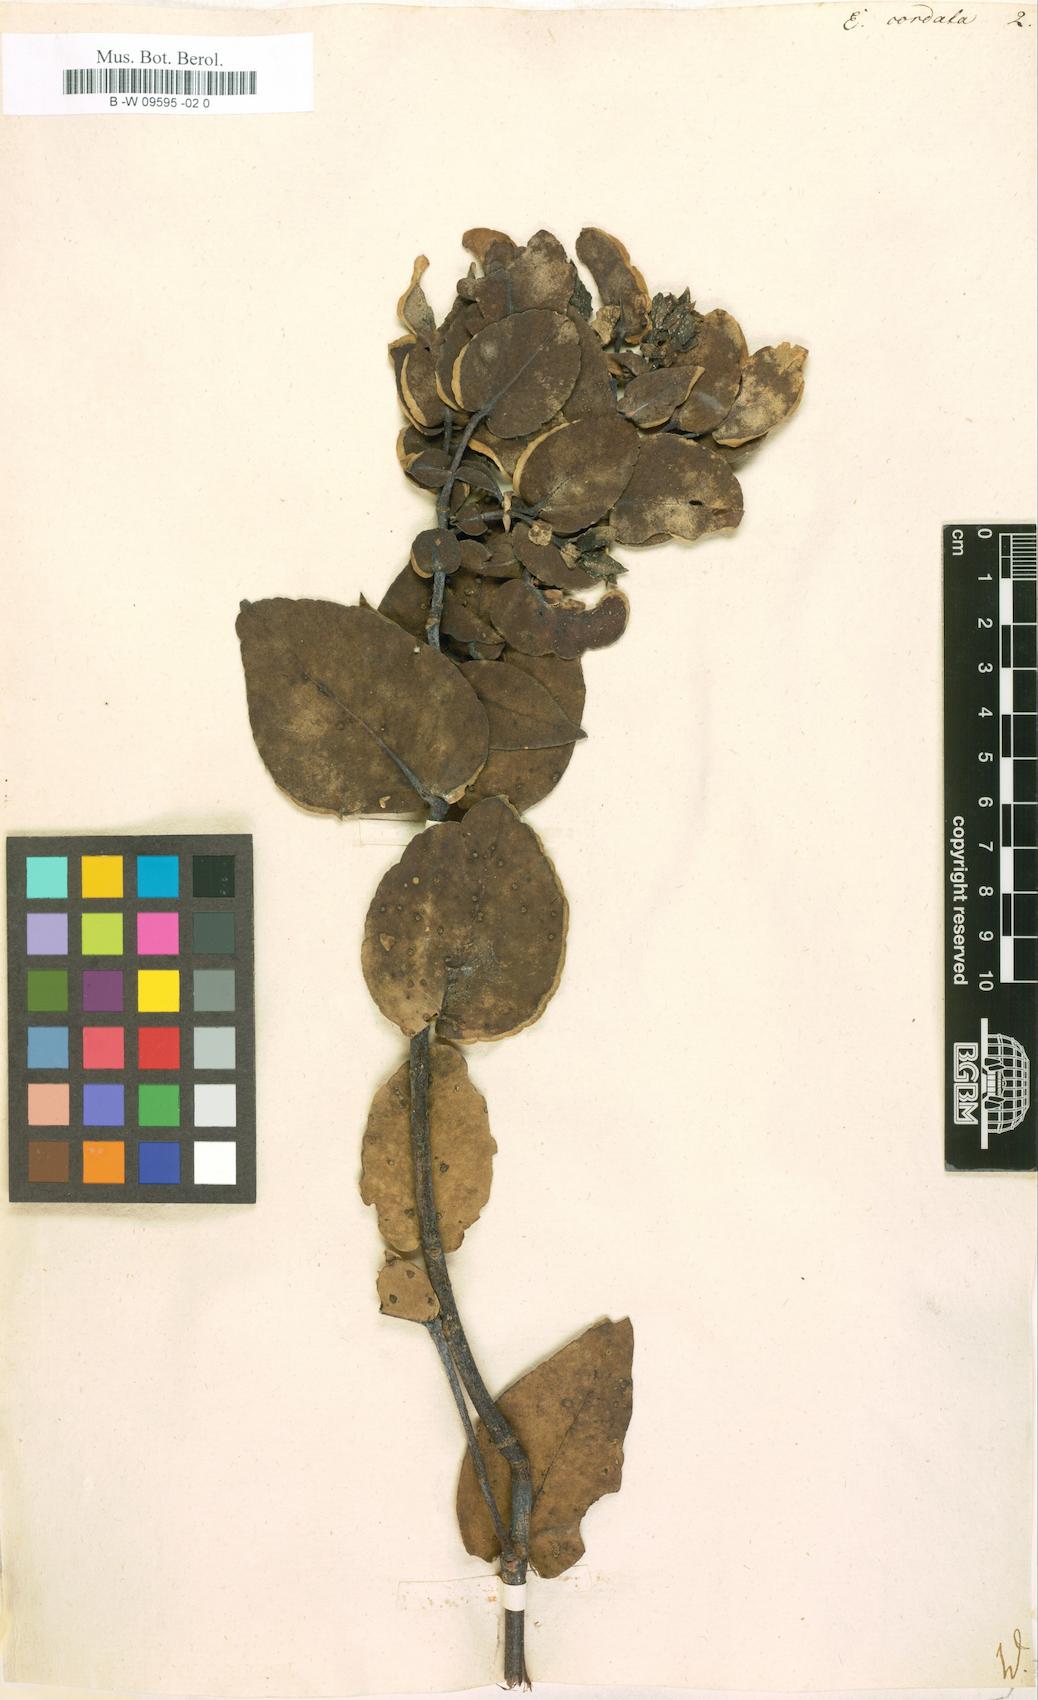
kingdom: Plantae
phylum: Tracheophyta
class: Magnoliopsida
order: Myrtales
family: Myrtaceae
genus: Eucalyptus
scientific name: Eucalyptus cordata
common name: Heart-leaf silver gum
